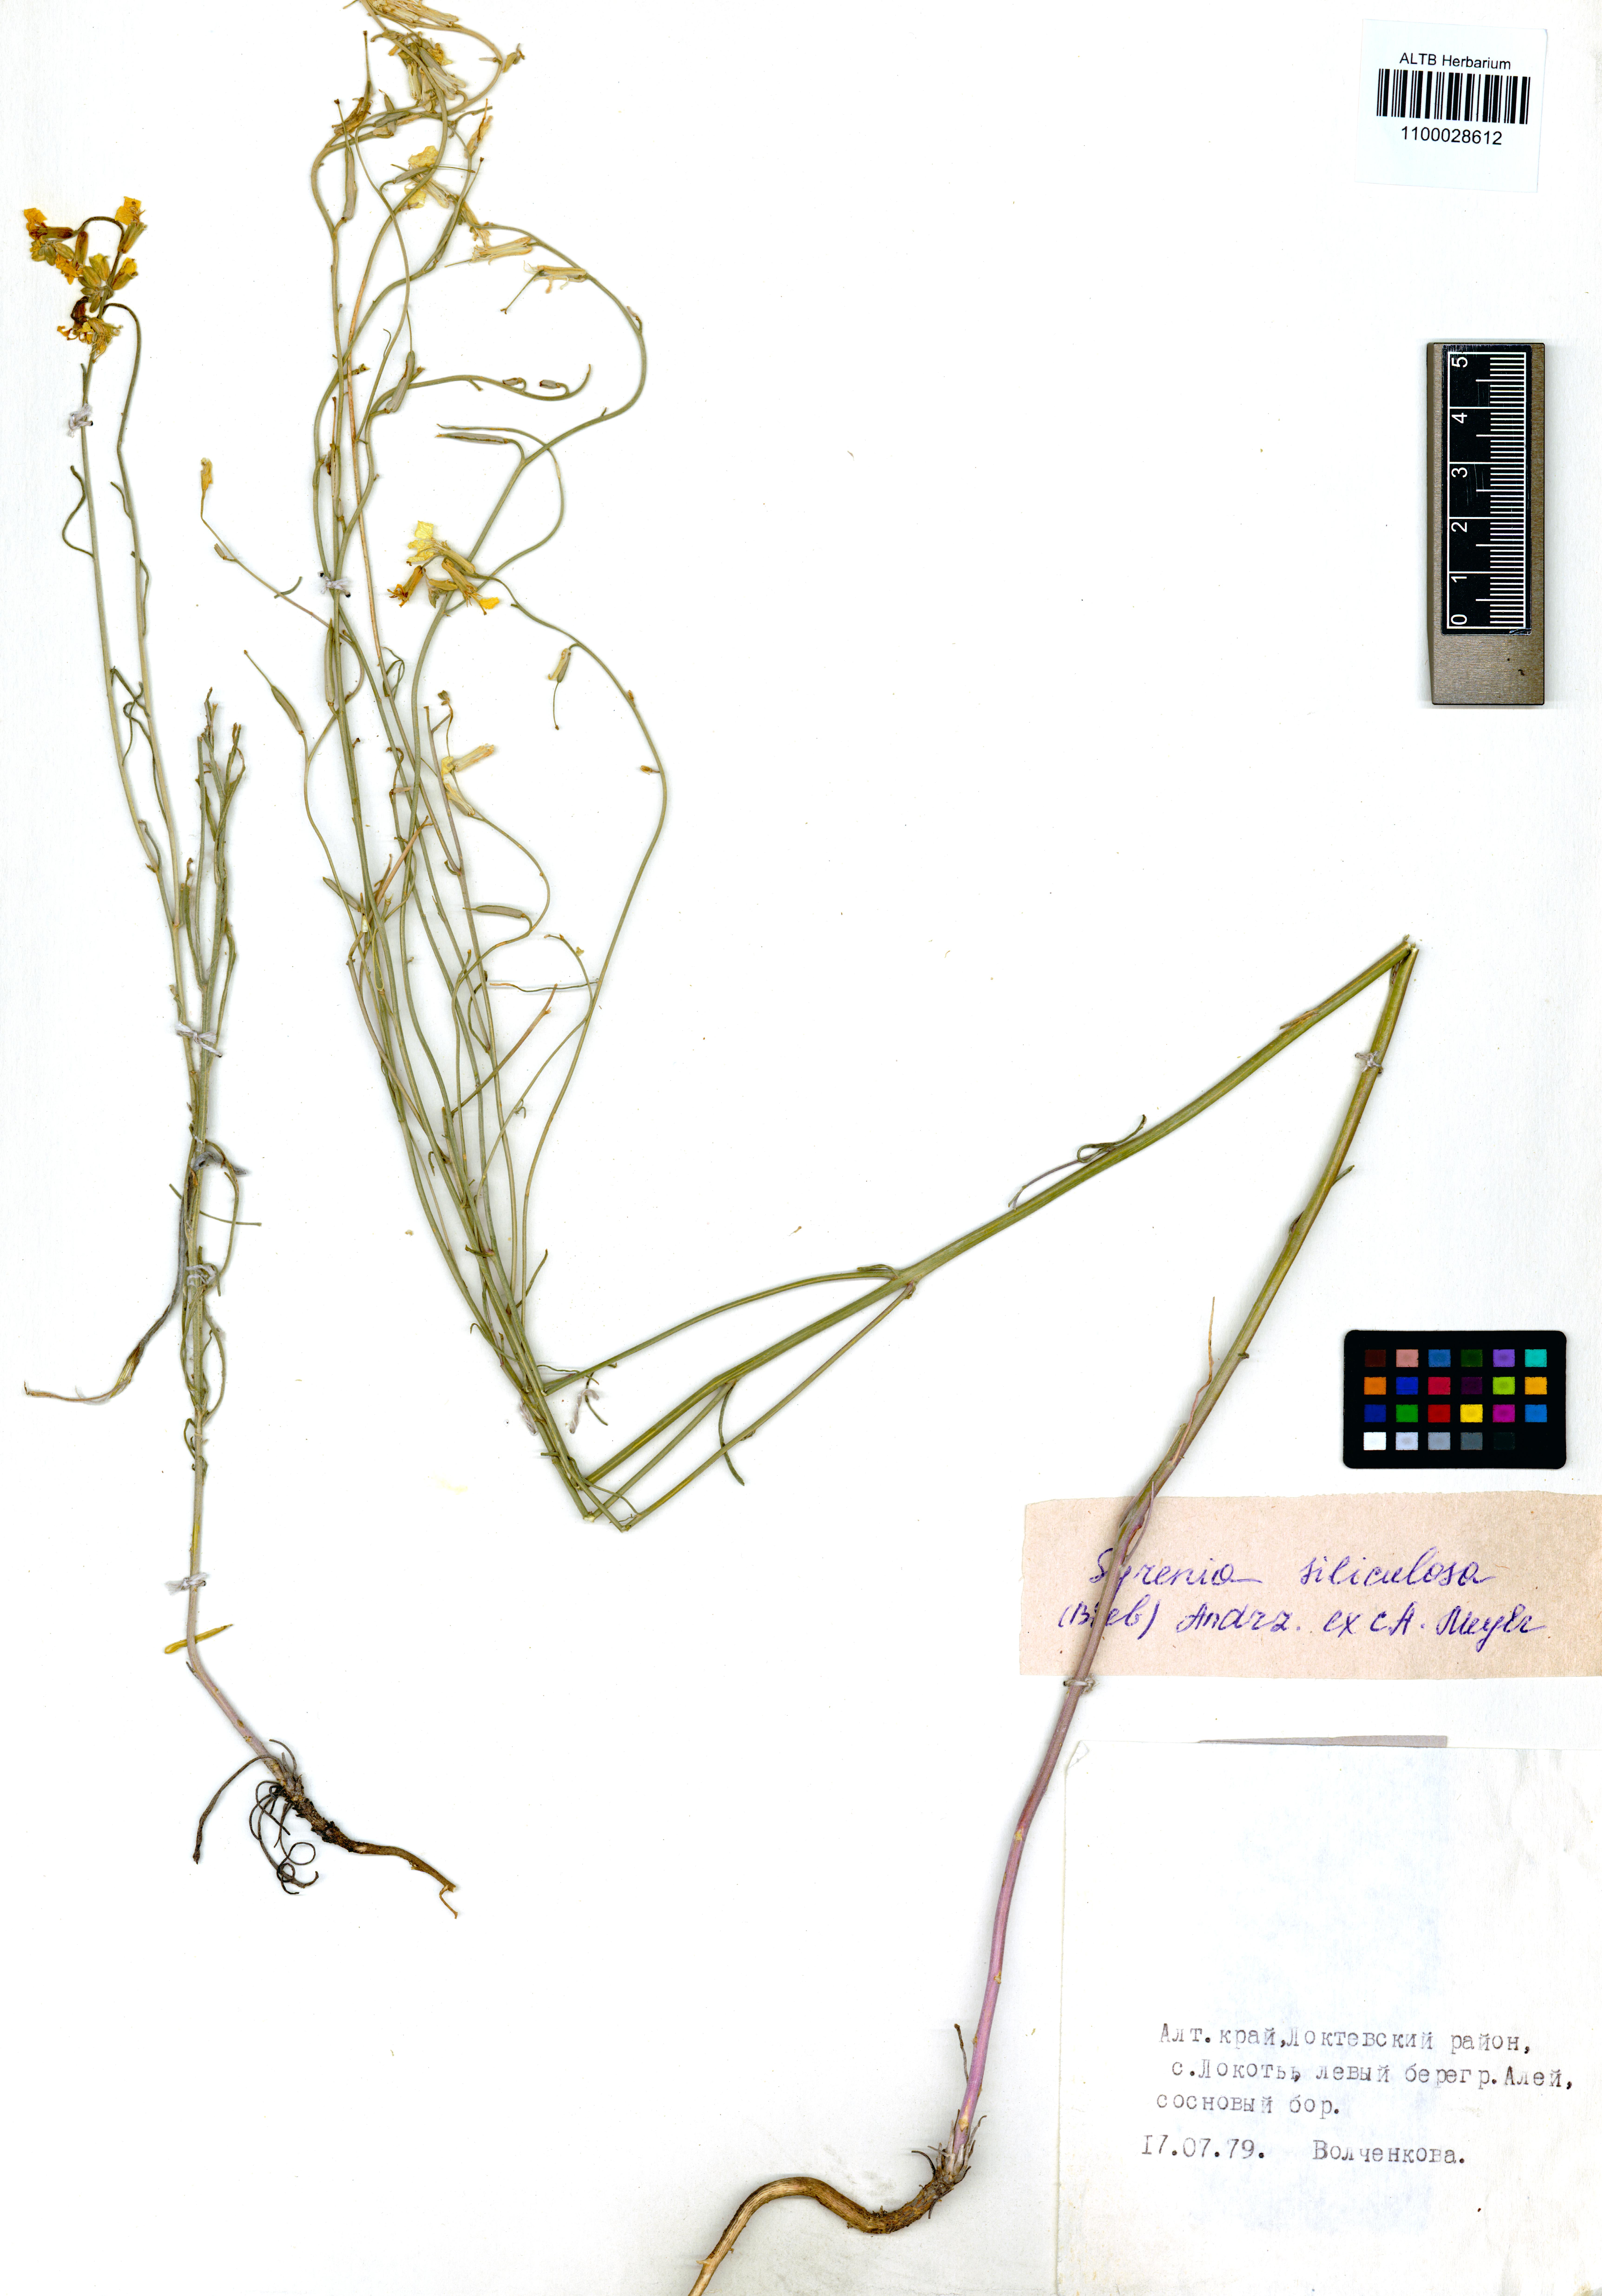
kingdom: Plantae
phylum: Tracheophyta
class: Magnoliopsida
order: Brassicales
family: Brassicaceae
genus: Syrenia
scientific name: Syrenia siliculosa
